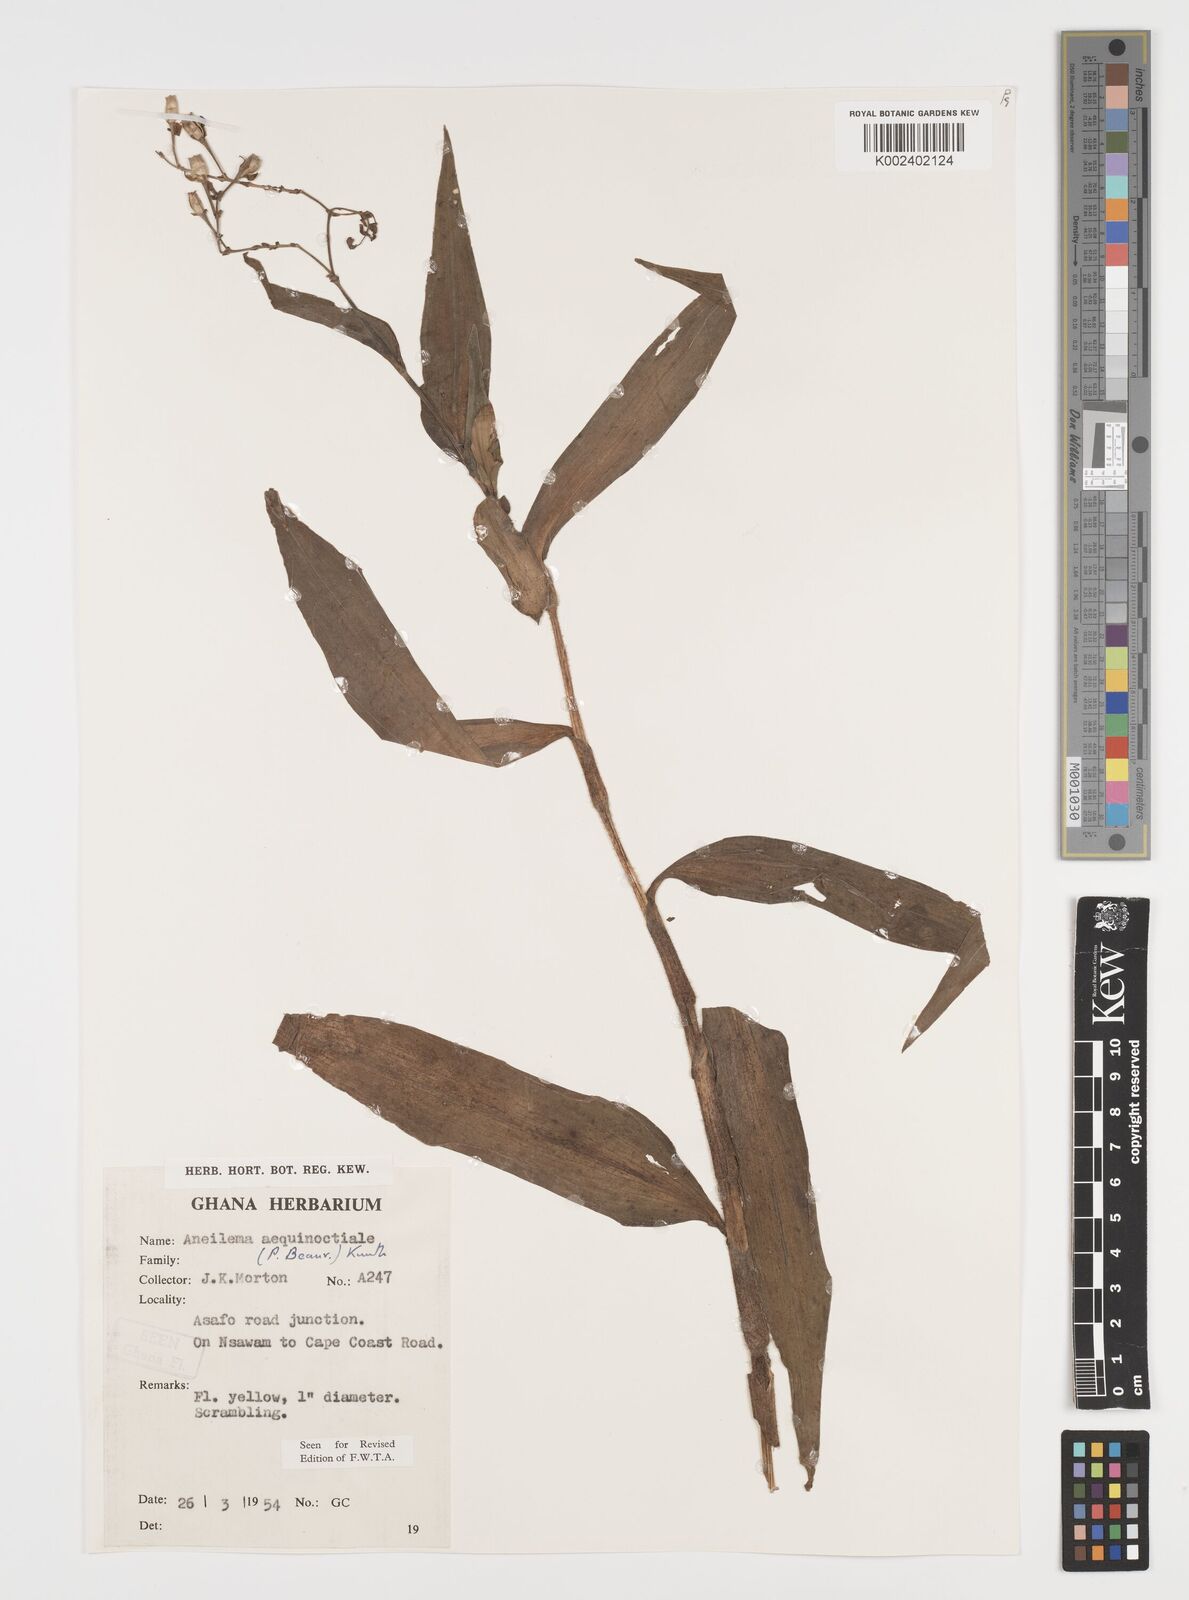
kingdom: Plantae
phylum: Tracheophyta
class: Liliopsida
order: Commelinales
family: Commelinaceae
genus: Aneilema
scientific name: Aneilema aequinoctiale
